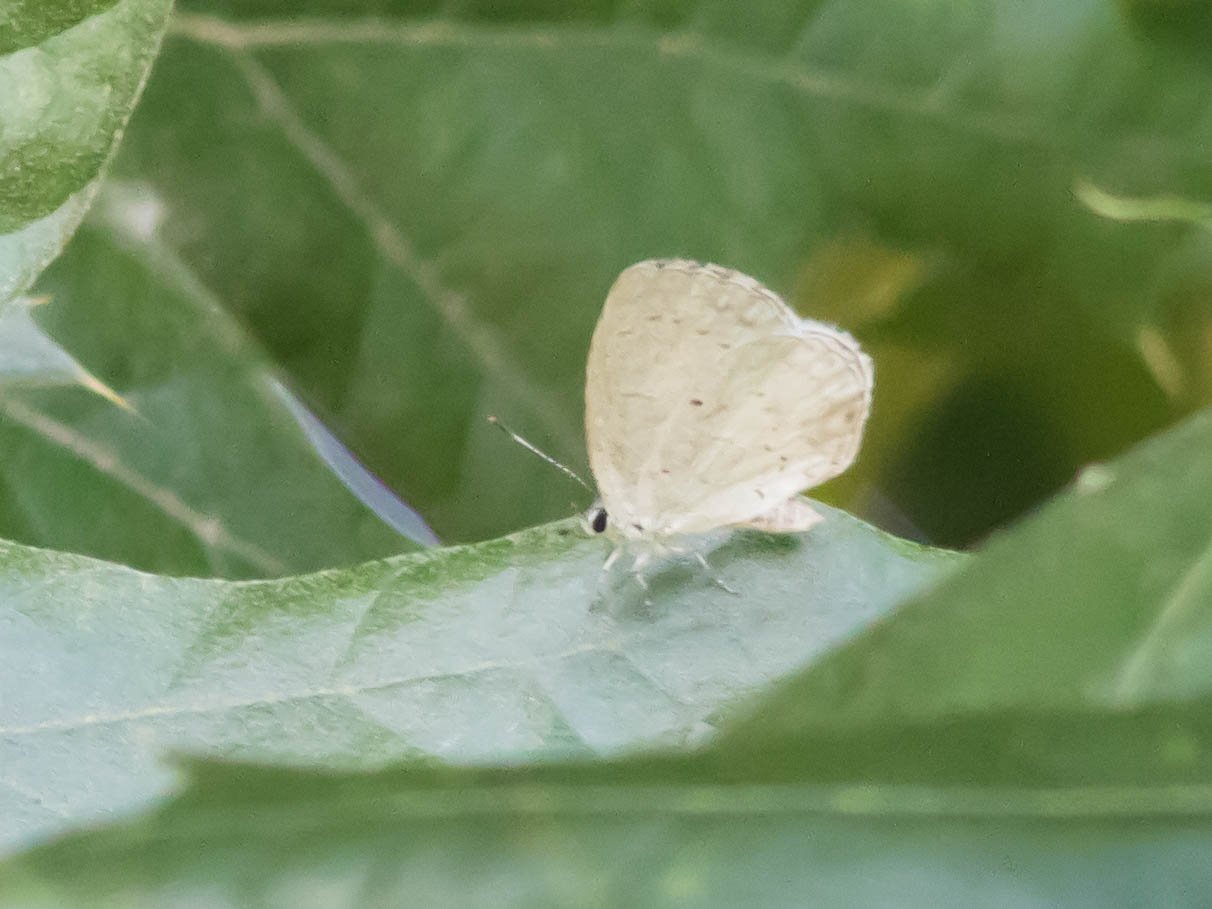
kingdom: Animalia
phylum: Arthropoda
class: Insecta
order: Lepidoptera
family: Lycaenidae
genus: Cyaniris
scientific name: Cyaniris neglecta
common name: Summer Azure
